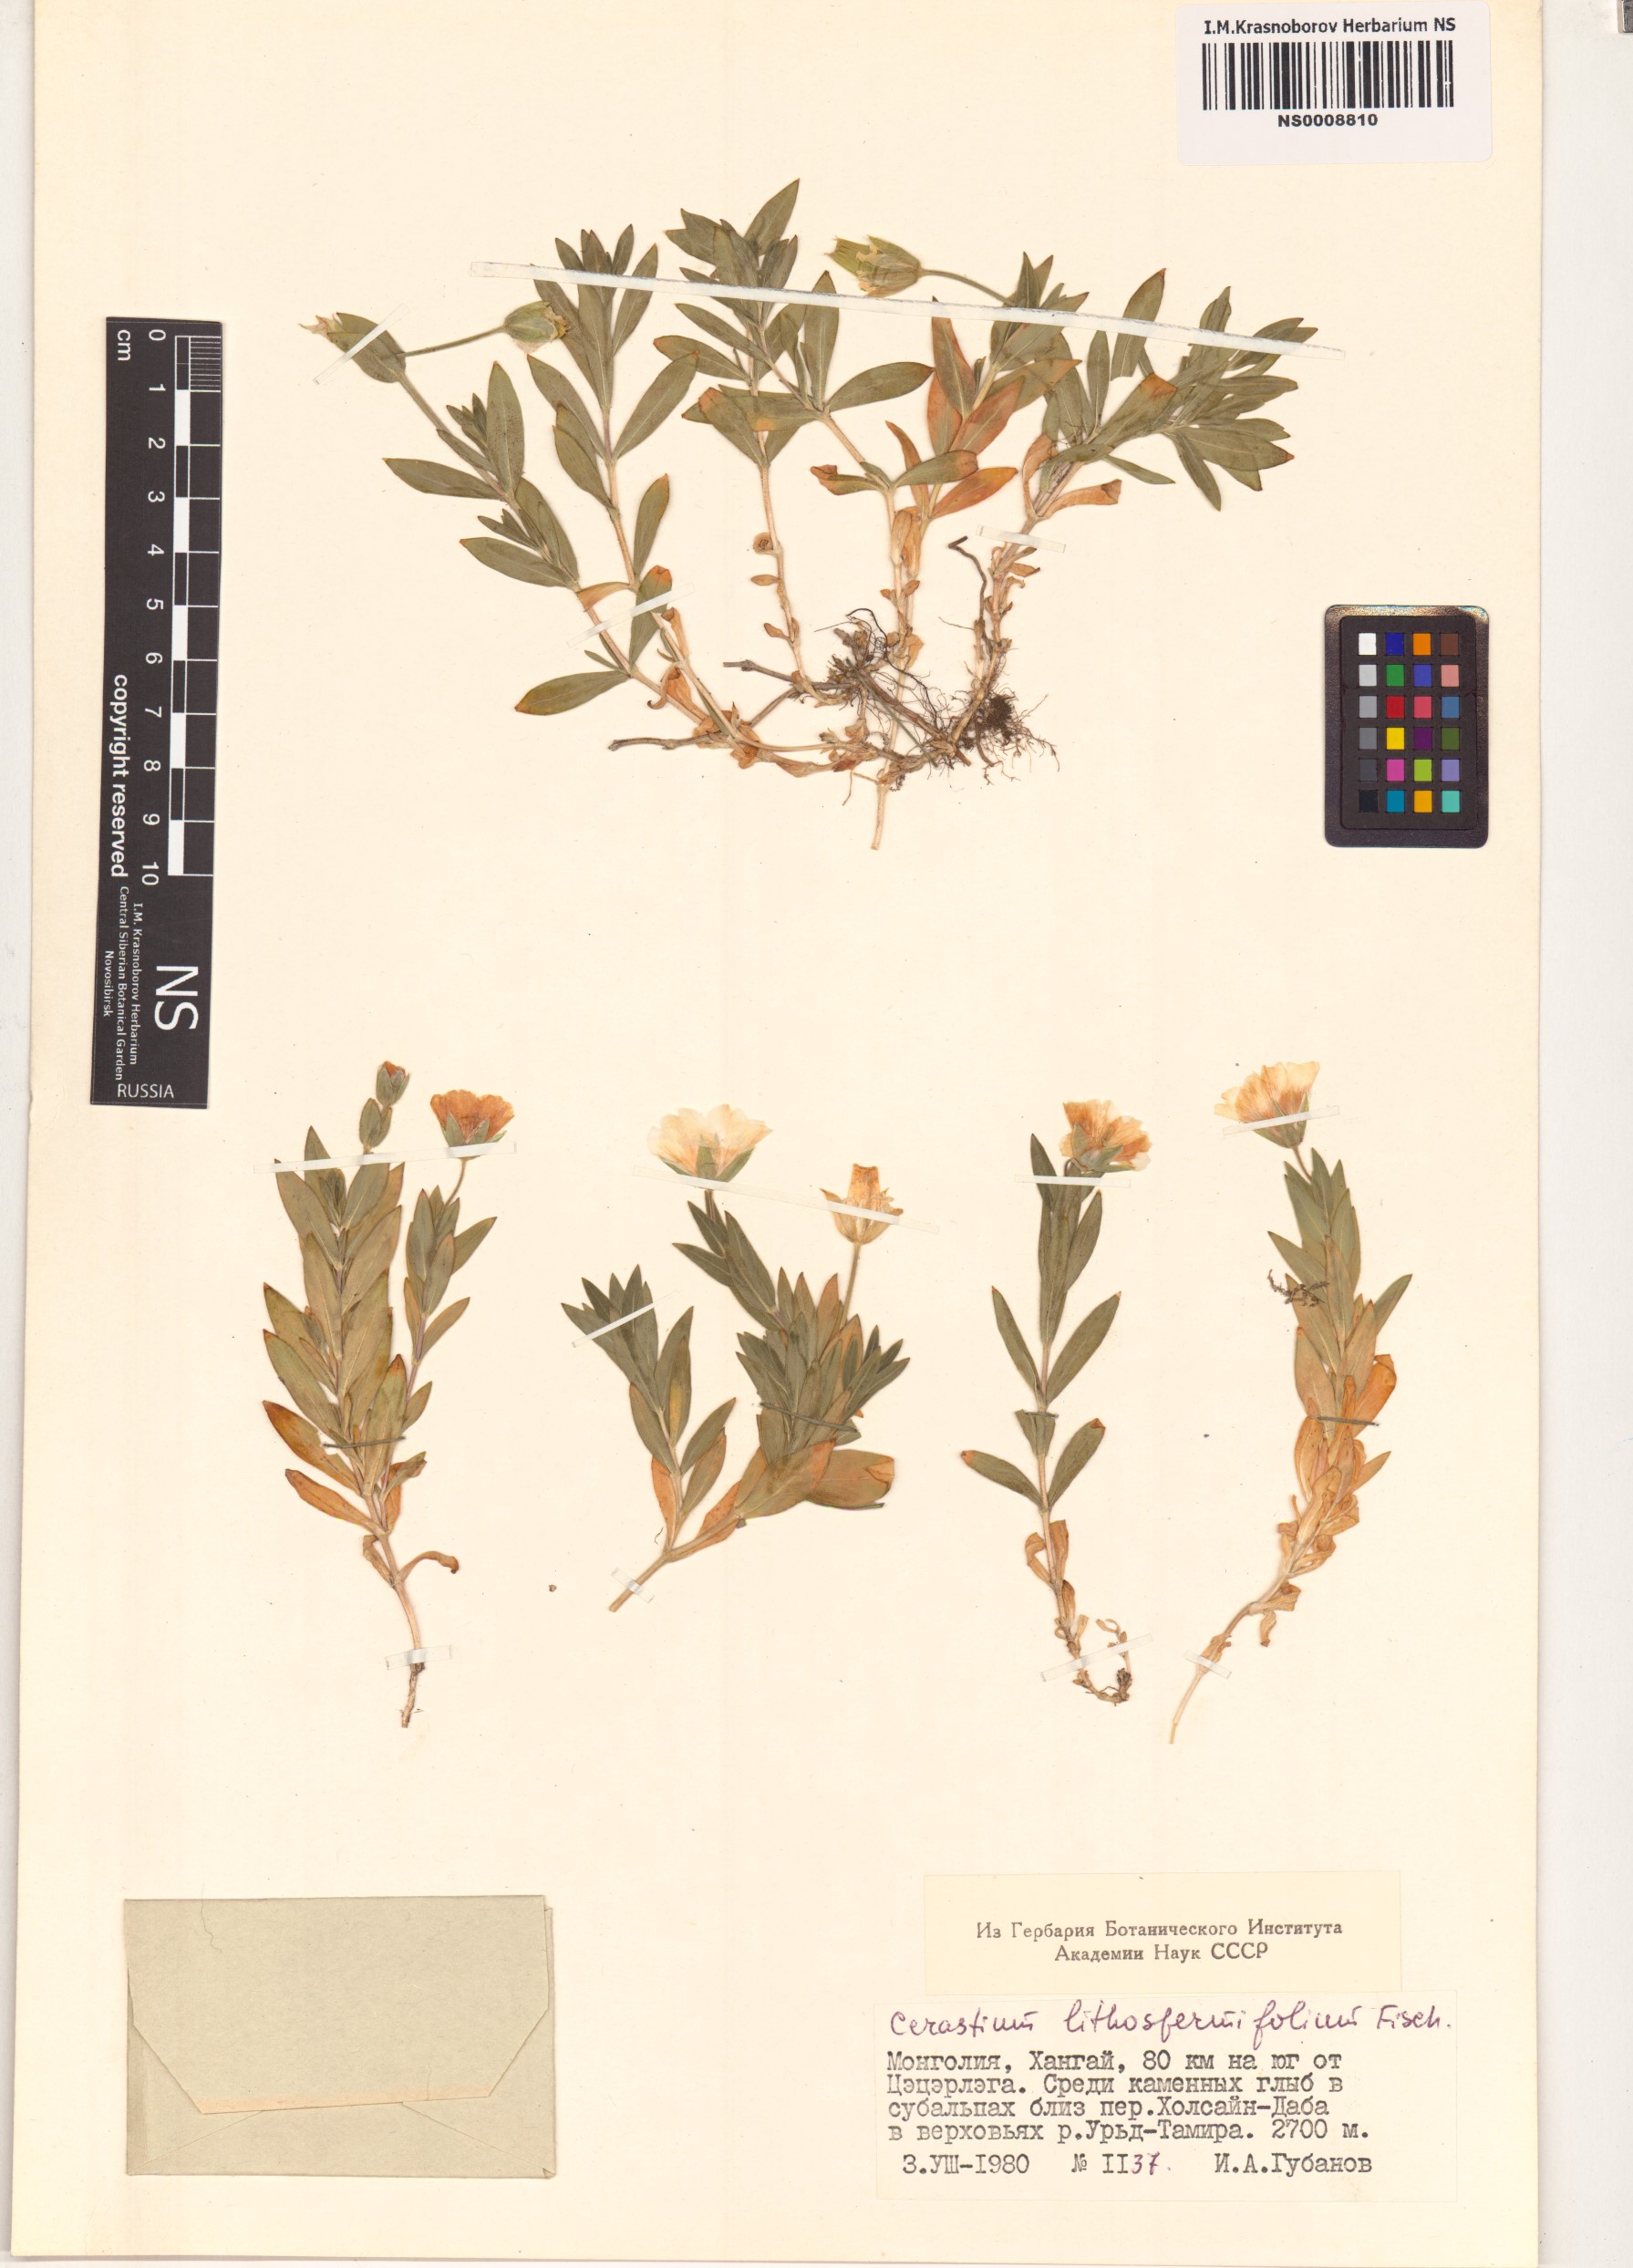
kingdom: Plantae
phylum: Tracheophyta
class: Magnoliopsida
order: Caryophyllales
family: Caryophyllaceae
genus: Cerastium
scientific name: Cerastium lithospermifolium
